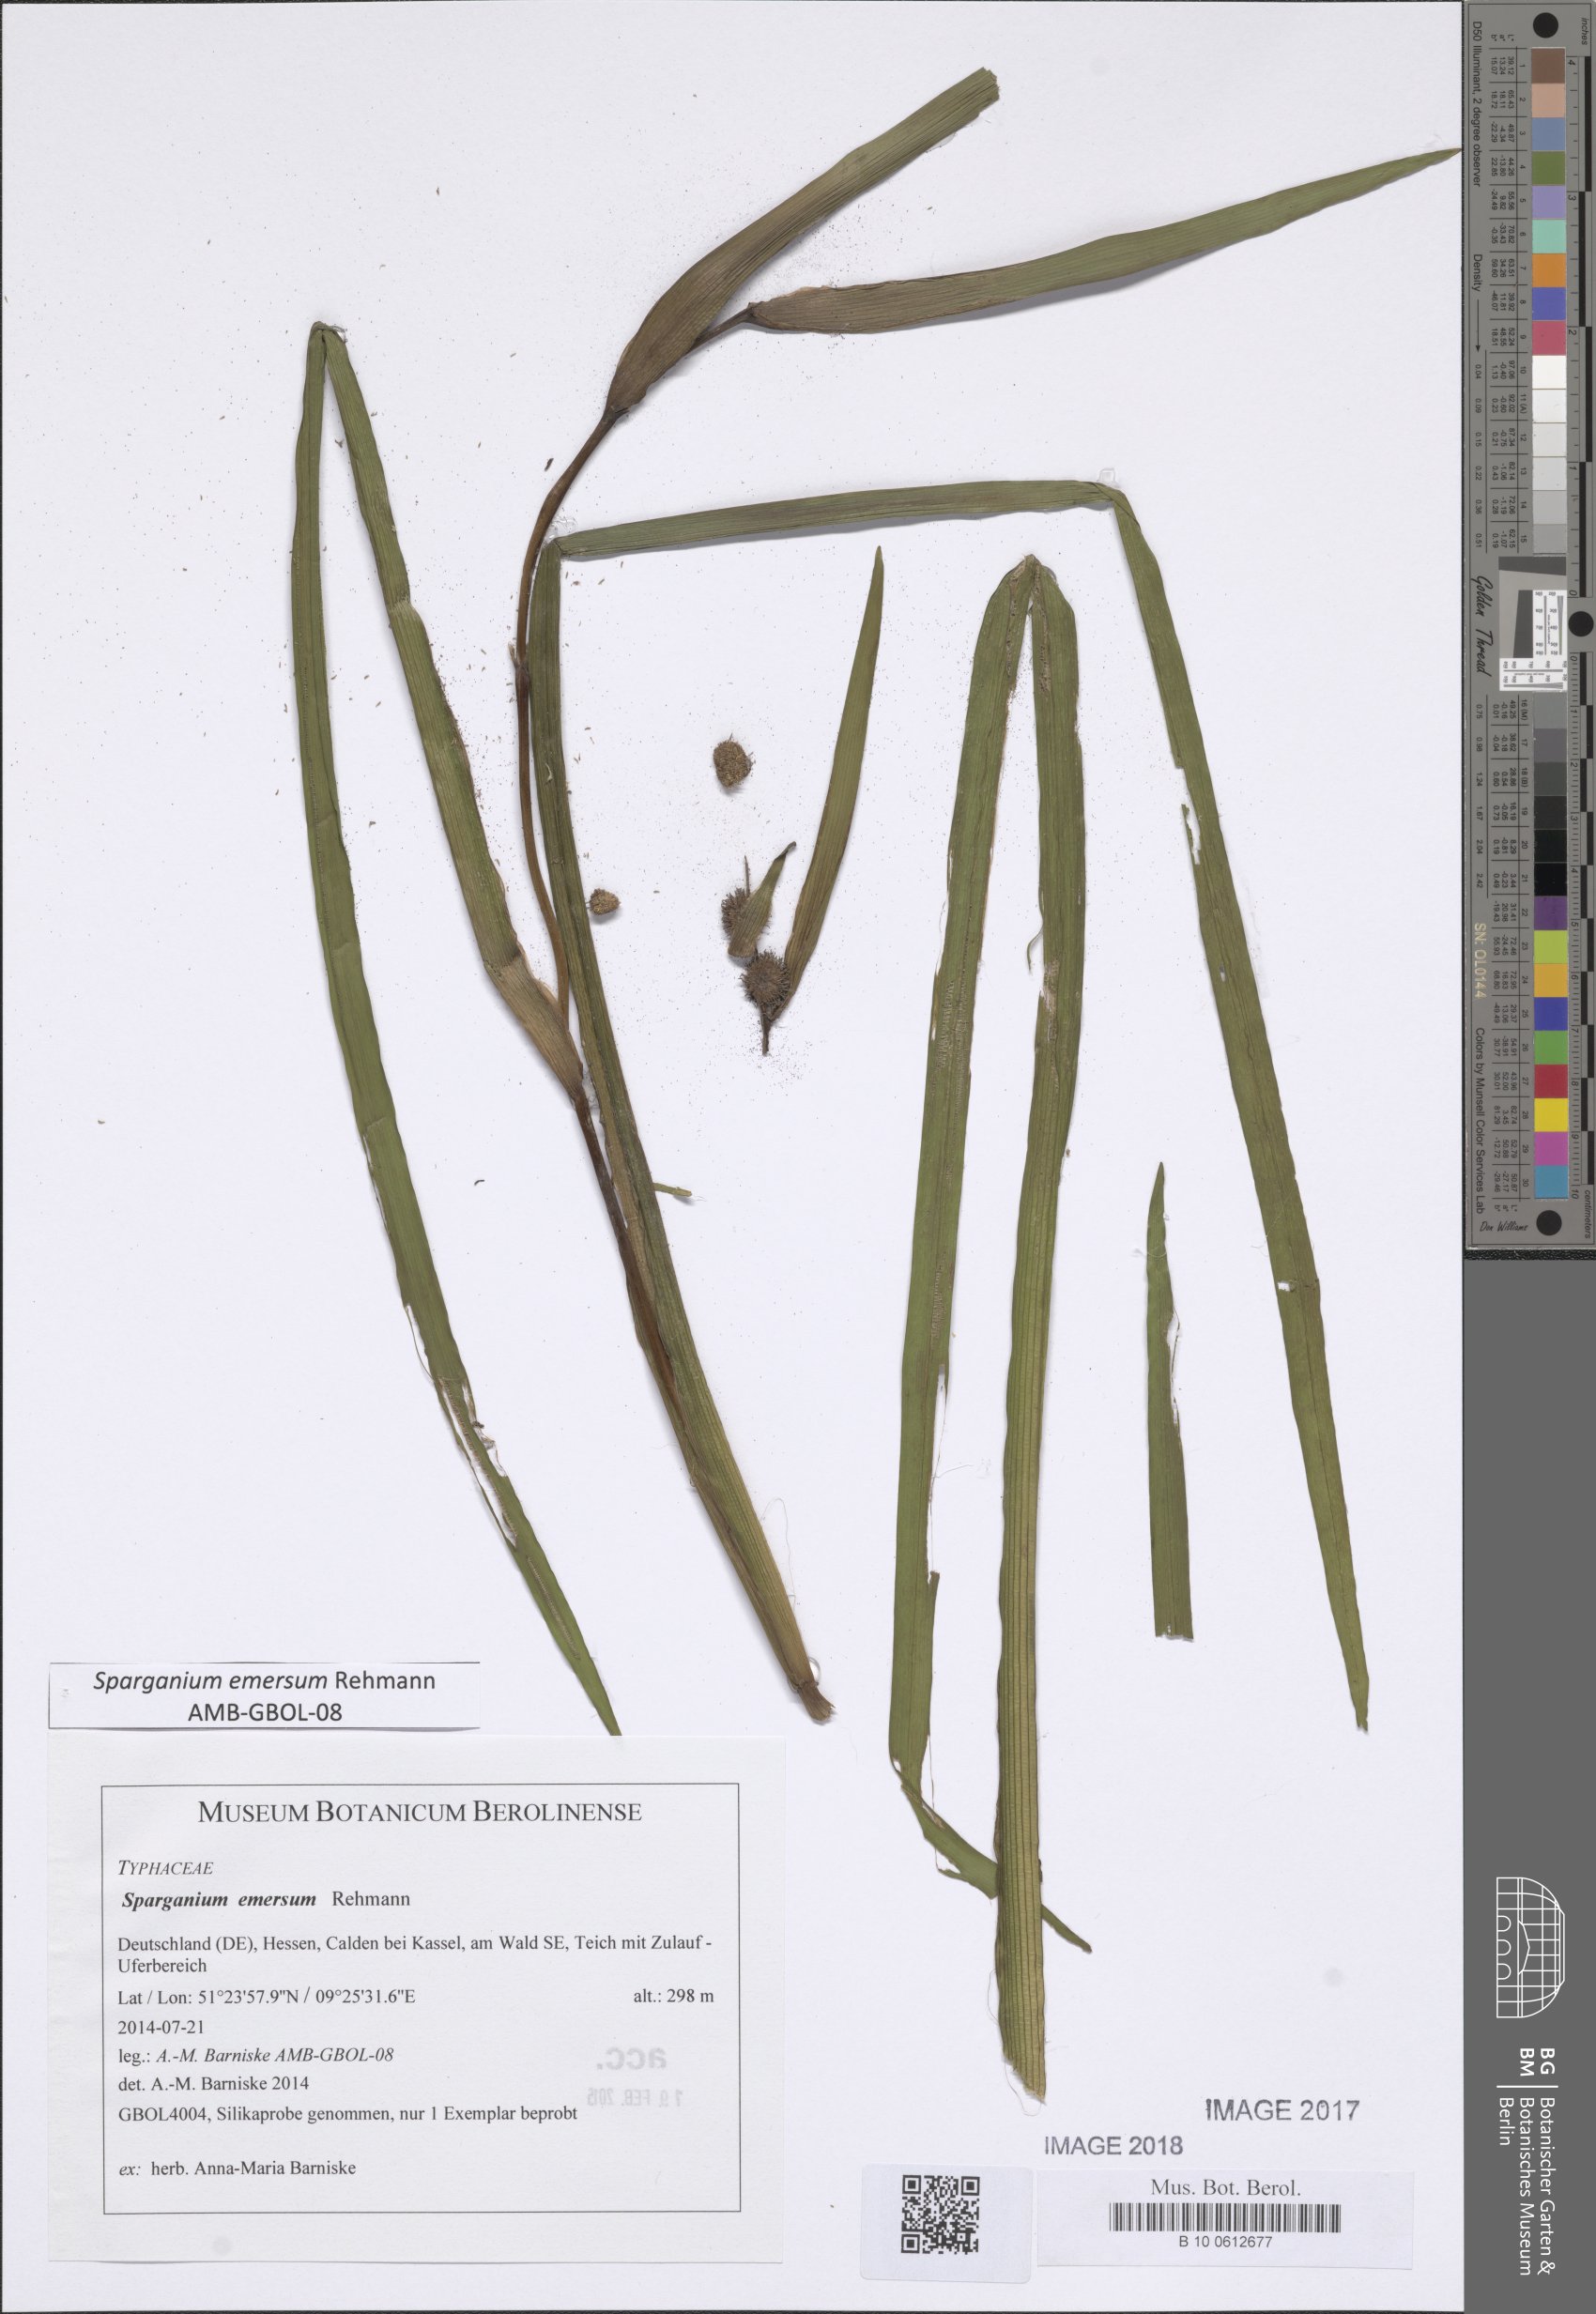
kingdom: Plantae
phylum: Tracheophyta
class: Liliopsida
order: Poales
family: Typhaceae
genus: Sparganium
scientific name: Sparganium emersum
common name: Unbranched bur-reed
